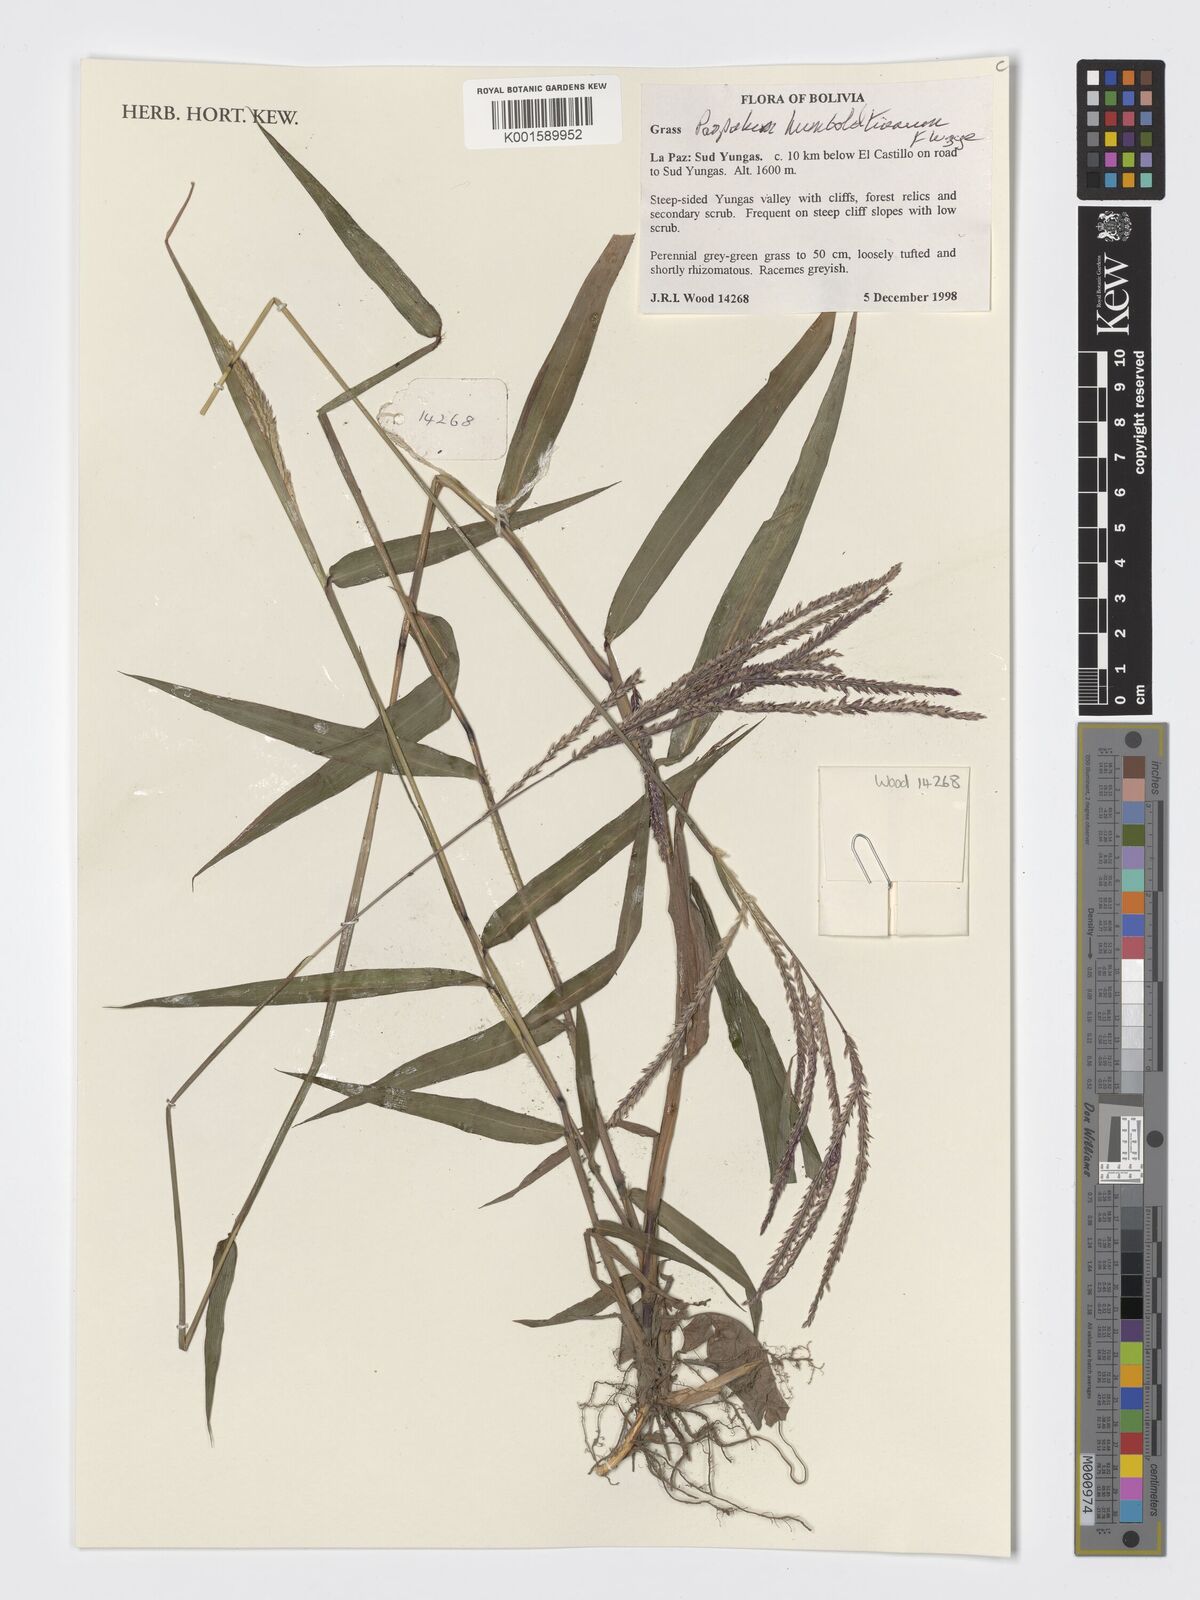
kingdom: Plantae
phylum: Tracheophyta
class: Liliopsida
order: Poales
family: Poaceae
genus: Paspalum
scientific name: Paspalum humboldtianum
